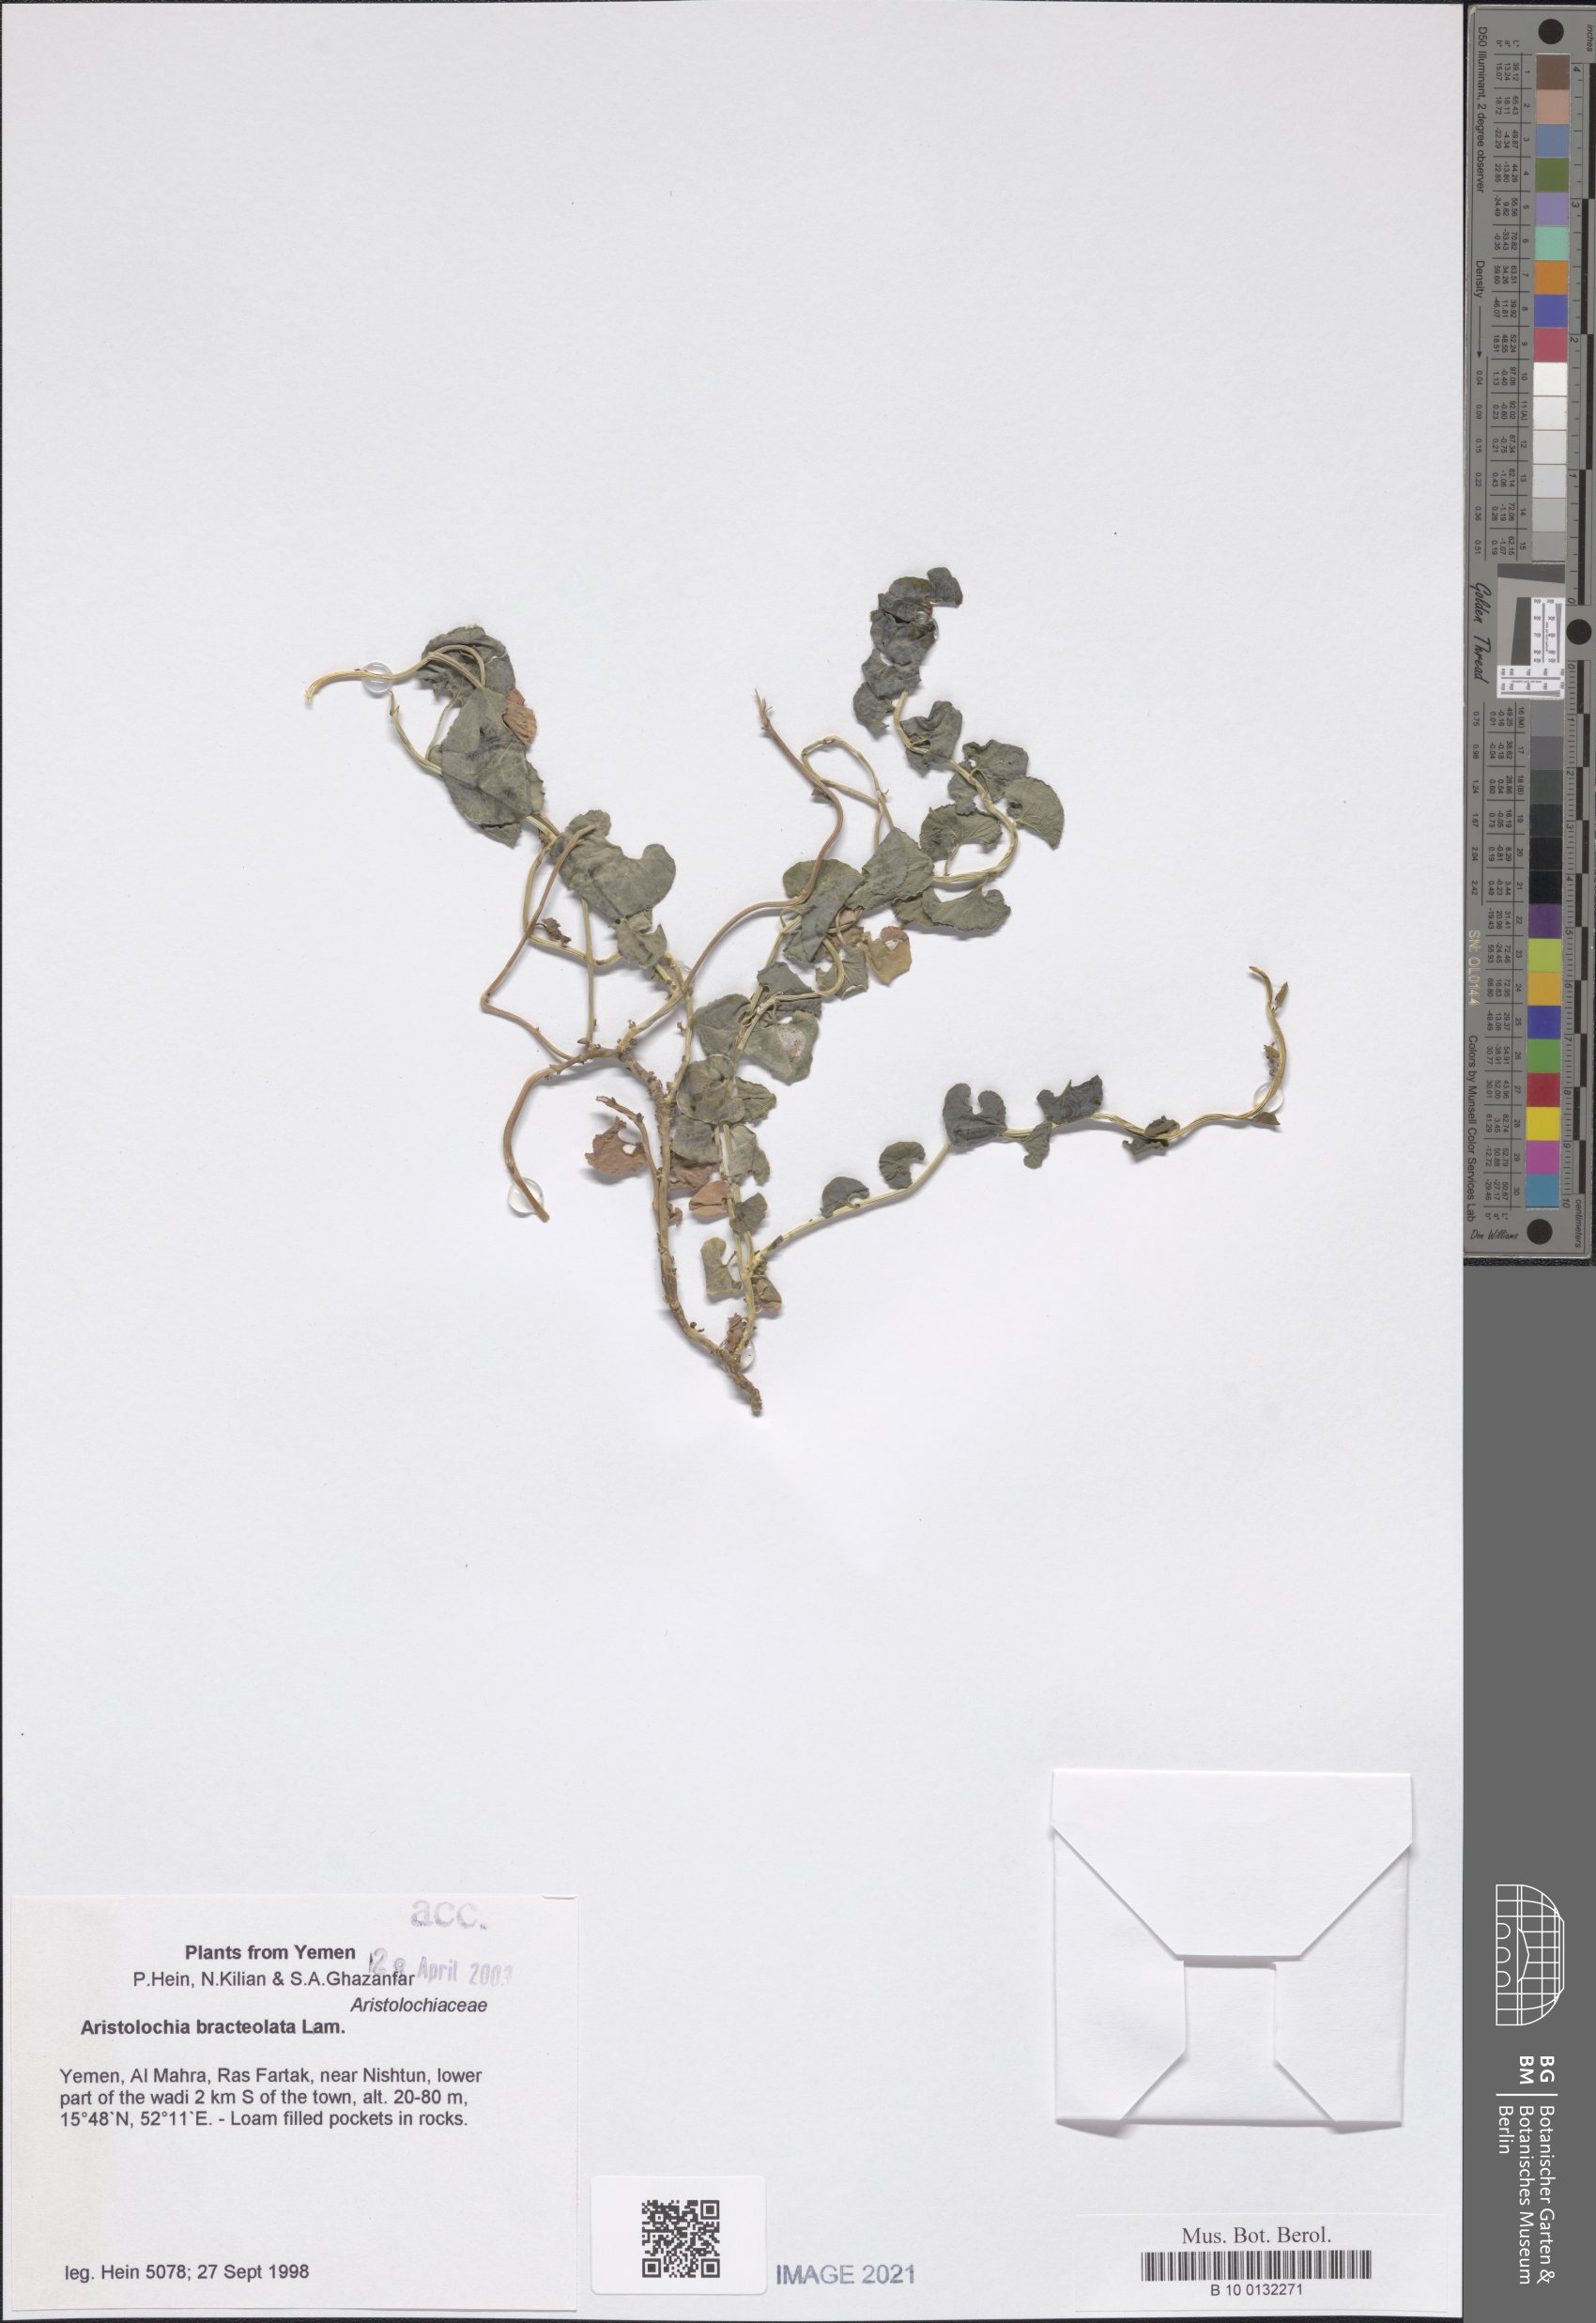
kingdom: Plantae
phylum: Tracheophyta
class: Magnoliopsida
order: Piperales
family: Aristolochiaceae
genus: Aristolochia
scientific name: Aristolochia bracteolata
